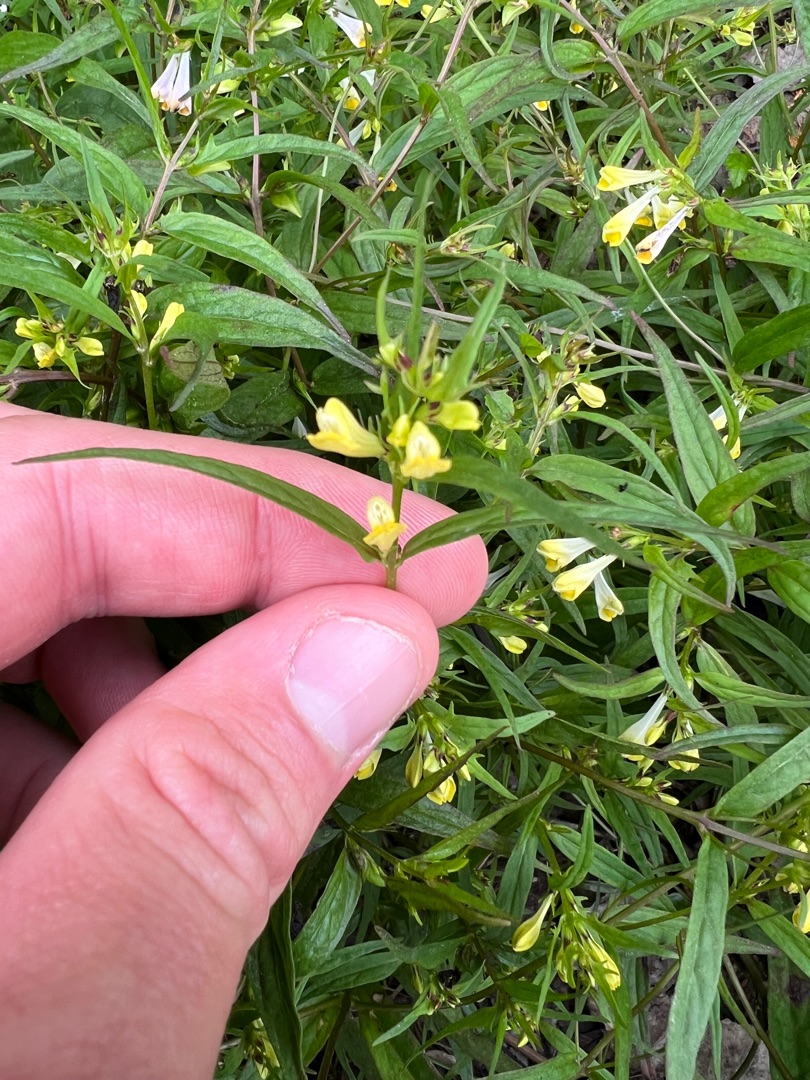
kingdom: Plantae
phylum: Tracheophyta
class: Magnoliopsida
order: Lamiales
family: Orobanchaceae
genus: Melampyrum
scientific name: Melampyrum pratense
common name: Almindelig kohvede
